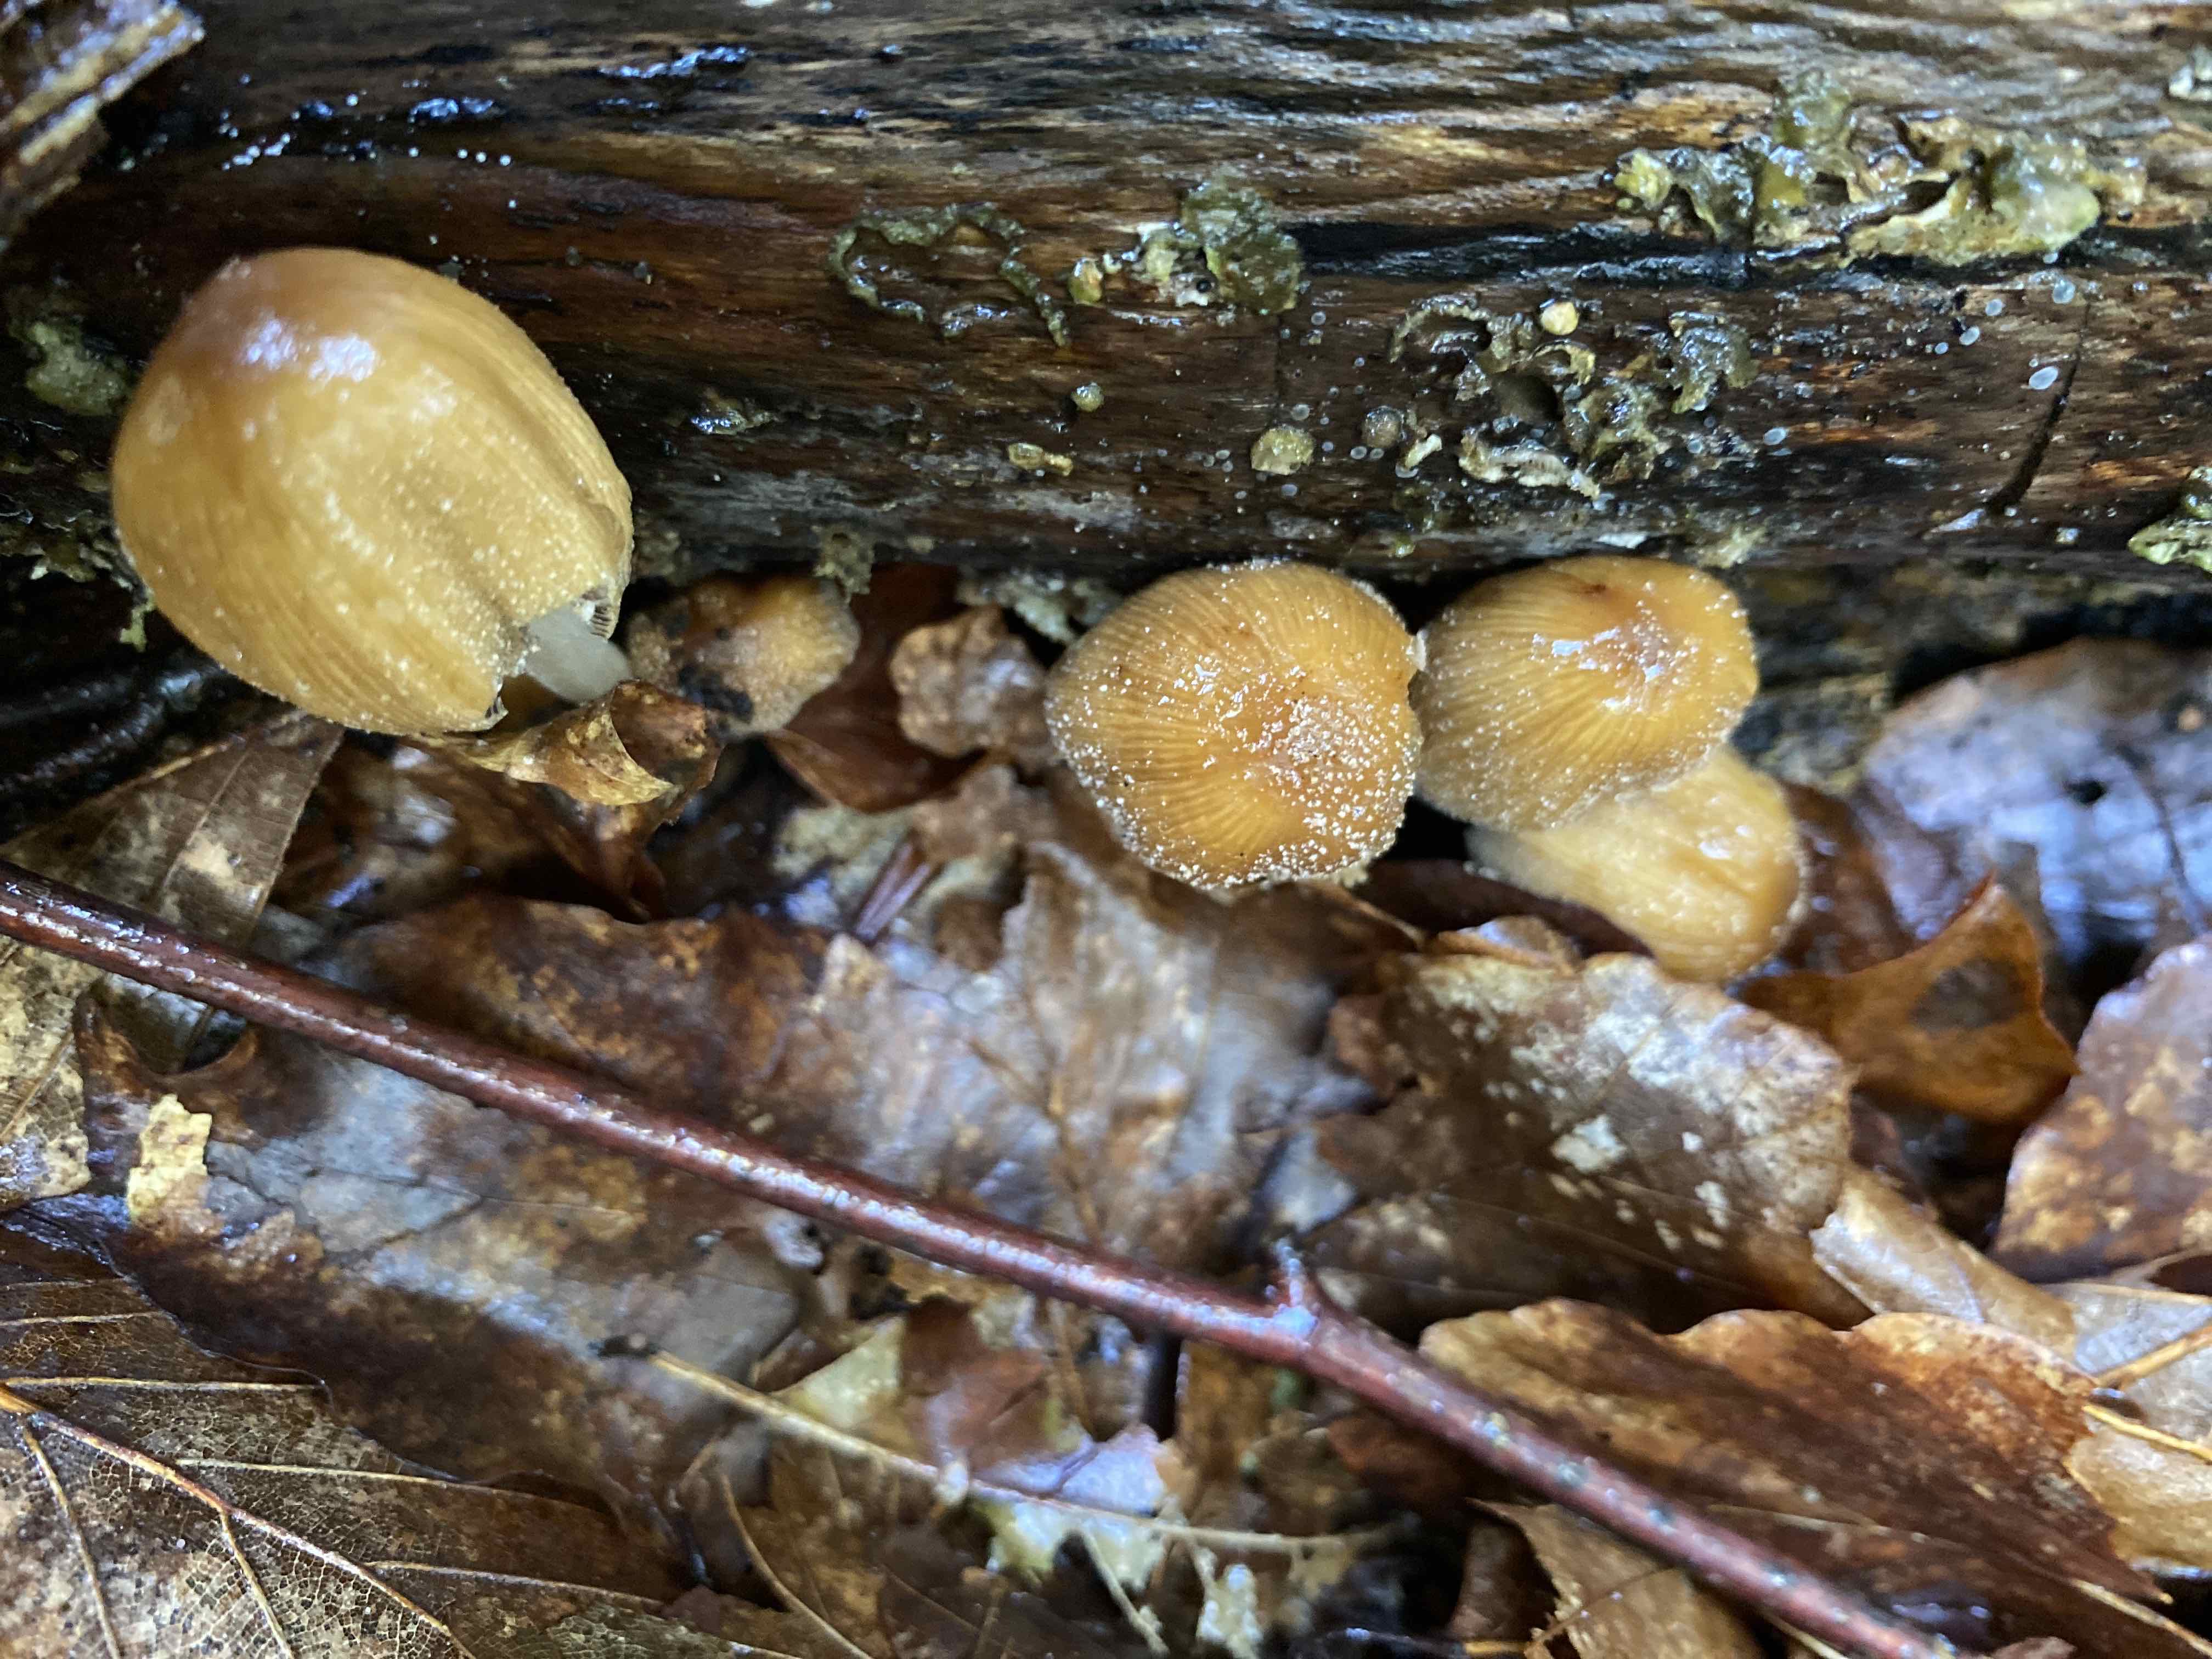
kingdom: Fungi
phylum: Basidiomycota
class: Agaricomycetes
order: Agaricales
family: Psathyrellaceae
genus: Coprinellus
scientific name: Coprinellus micaceus
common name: glimmer-blækhat
